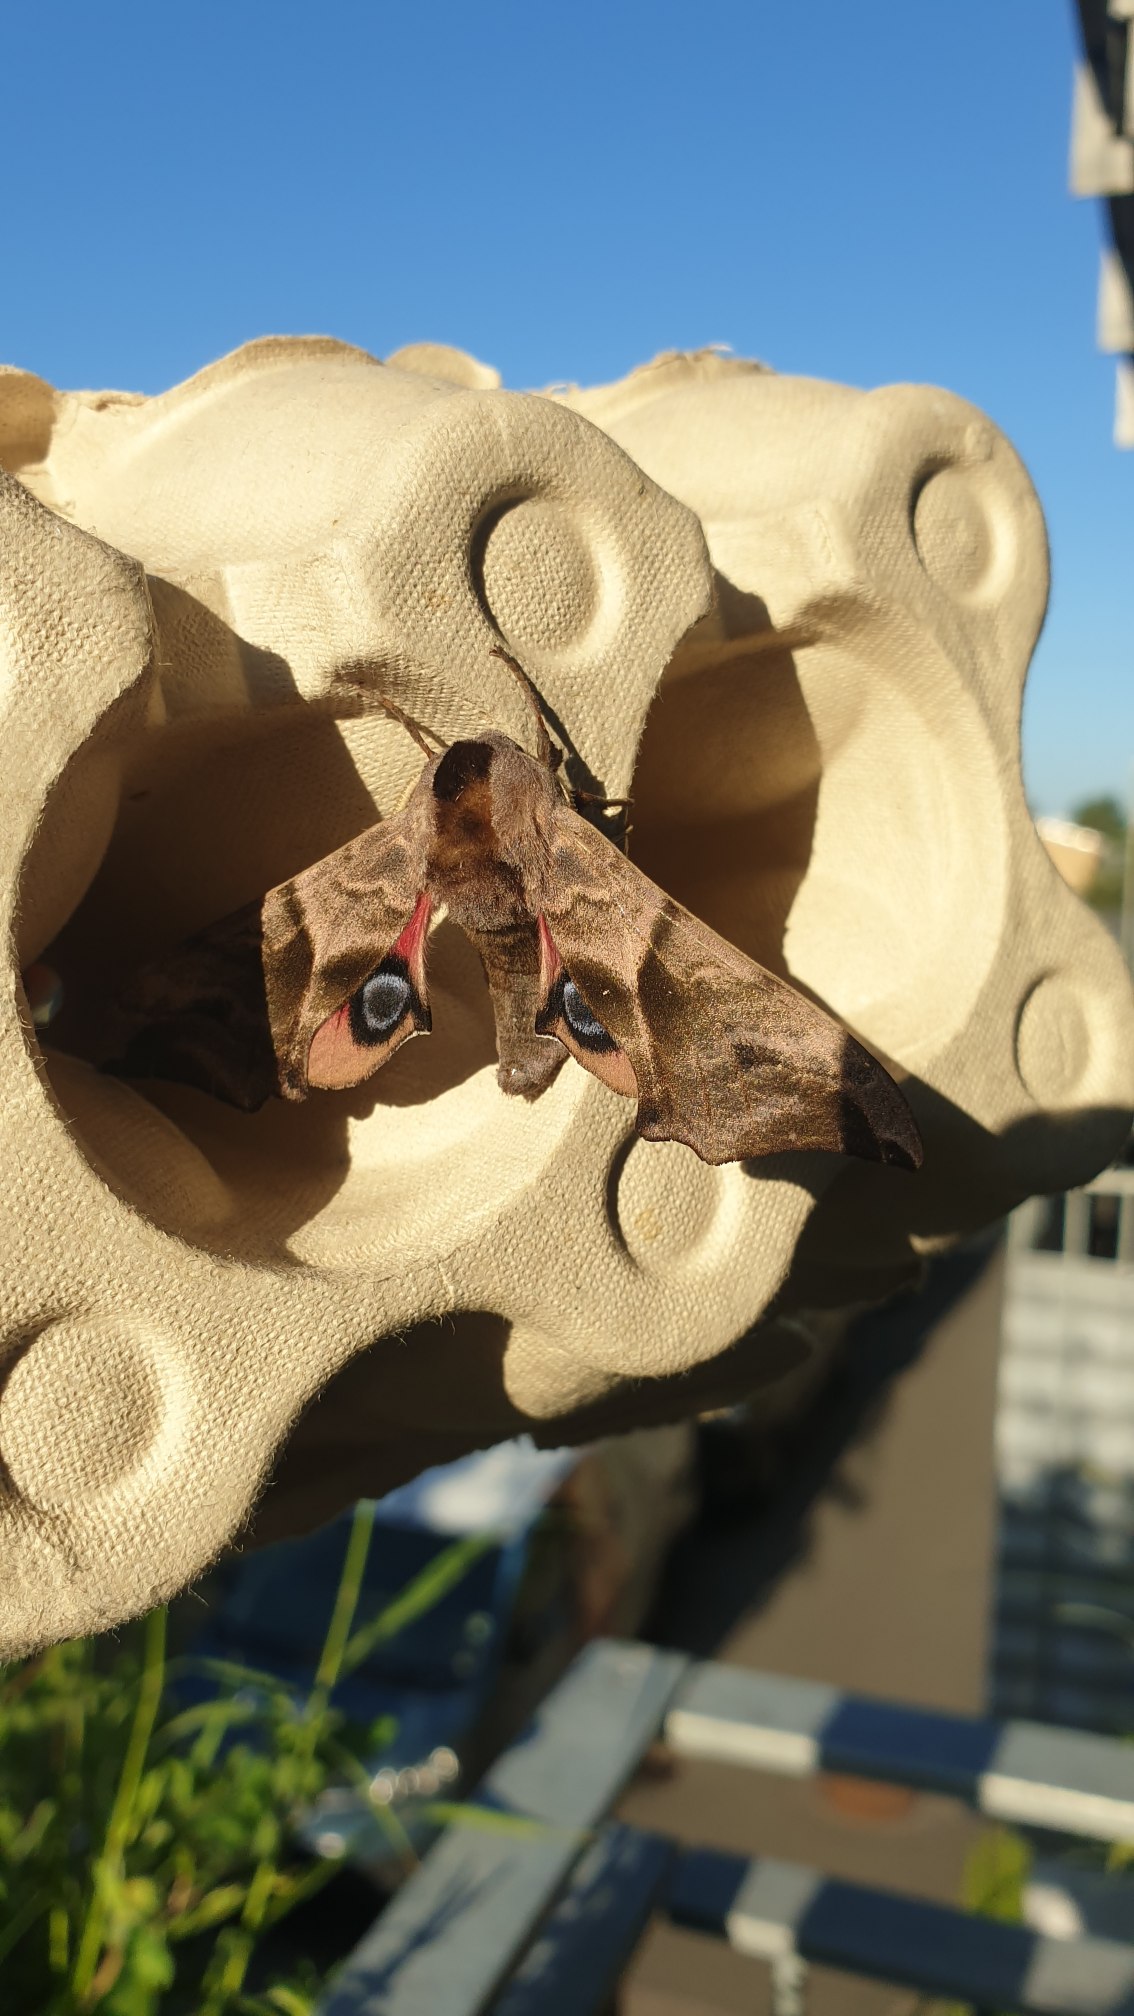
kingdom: Animalia
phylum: Arthropoda
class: Insecta
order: Lepidoptera
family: Sphingidae
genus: Smerinthus
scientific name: Smerinthus ocellata
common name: Aftenpåfugleøje
